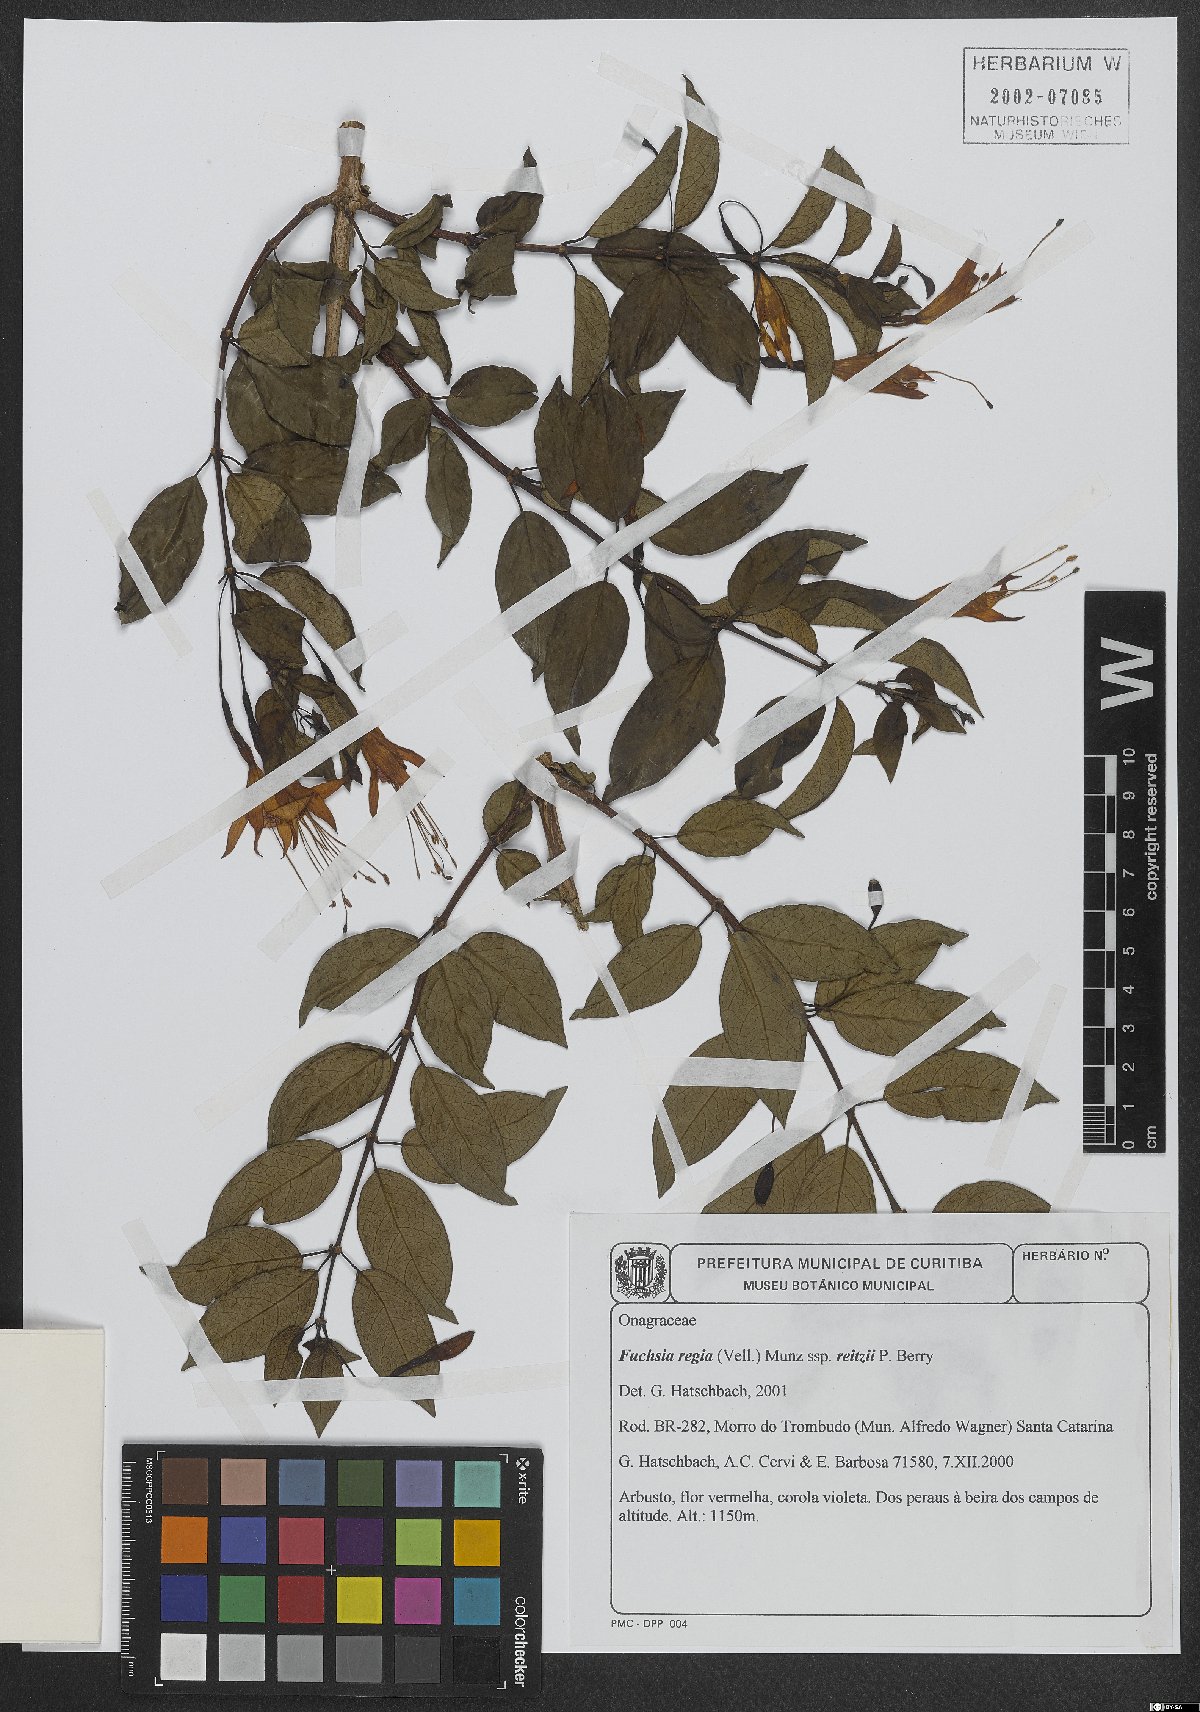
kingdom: Plantae
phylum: Tracheophyta
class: Magnoliopsida
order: Myrtales
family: Onagraceae
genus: Fuchsia
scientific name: Fuchsia regia
